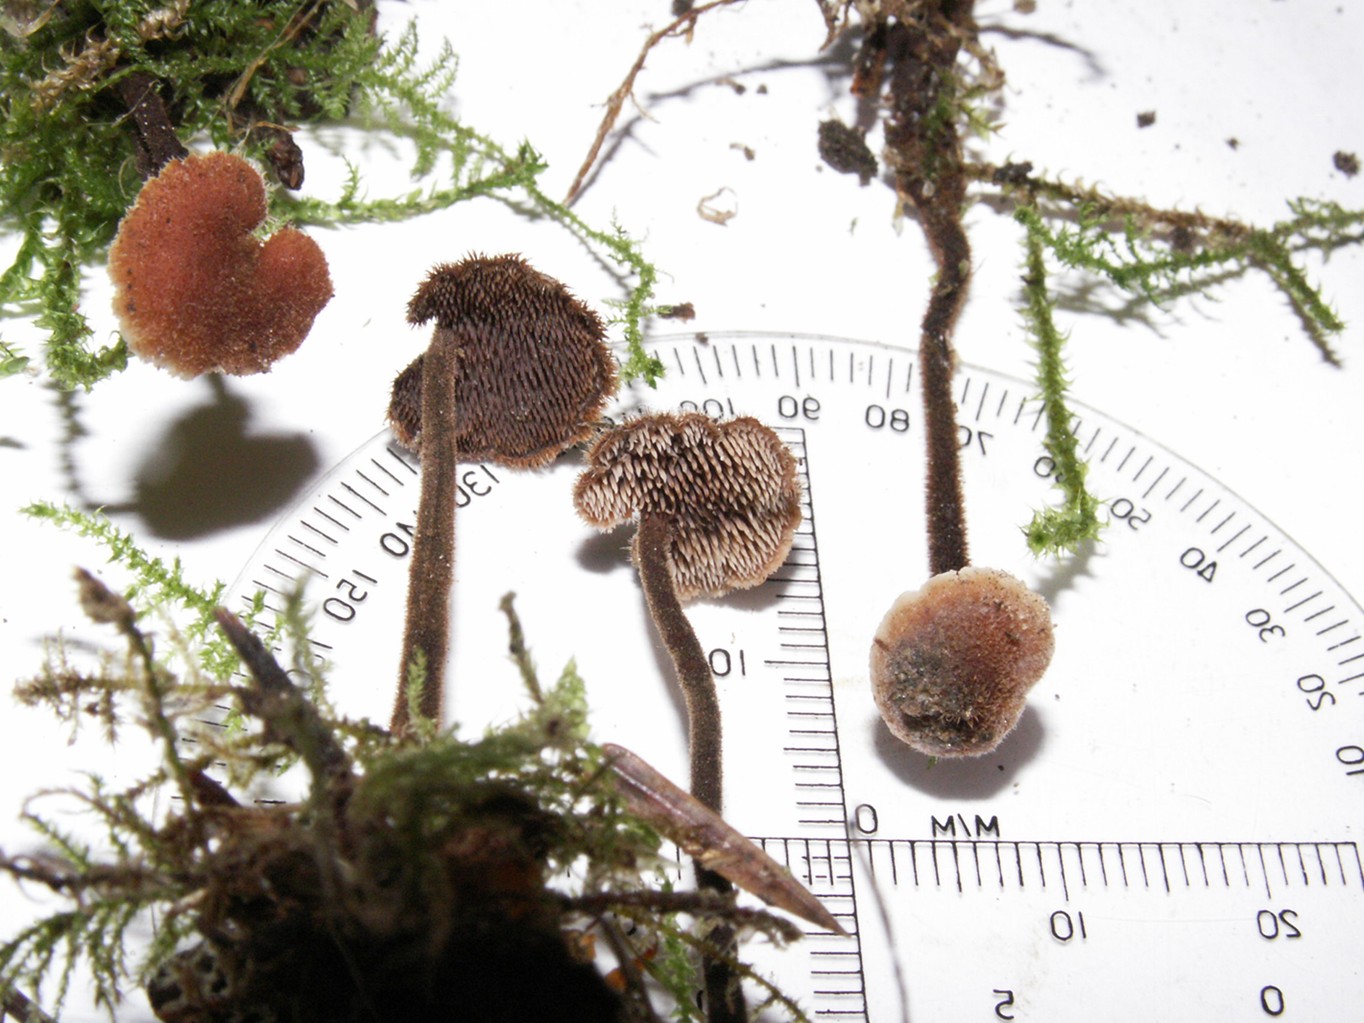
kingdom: Fungi
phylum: Basidiomycota
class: Agaricomycetes
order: Russulales
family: Auriscalpiaceae
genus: Auriscalpium
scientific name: Auriscalpium vulgare
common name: koglepigsvamp
